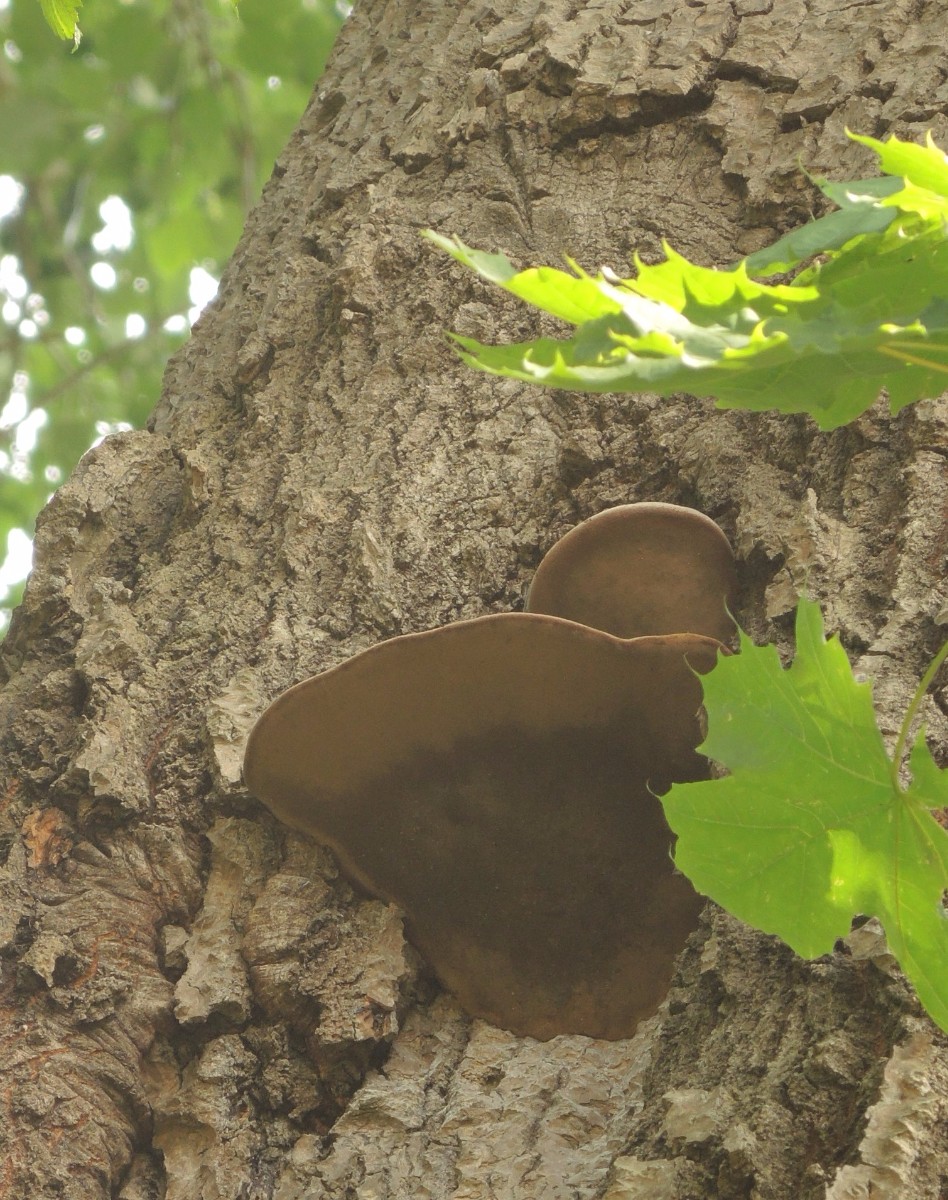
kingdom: Fungi
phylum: Basidiomycota
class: Agaricomycetes
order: Hymenochaetales
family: Hymenochaetaceae
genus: Phellinus
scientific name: Phellinus populicola
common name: poppel-ildporesvamp
